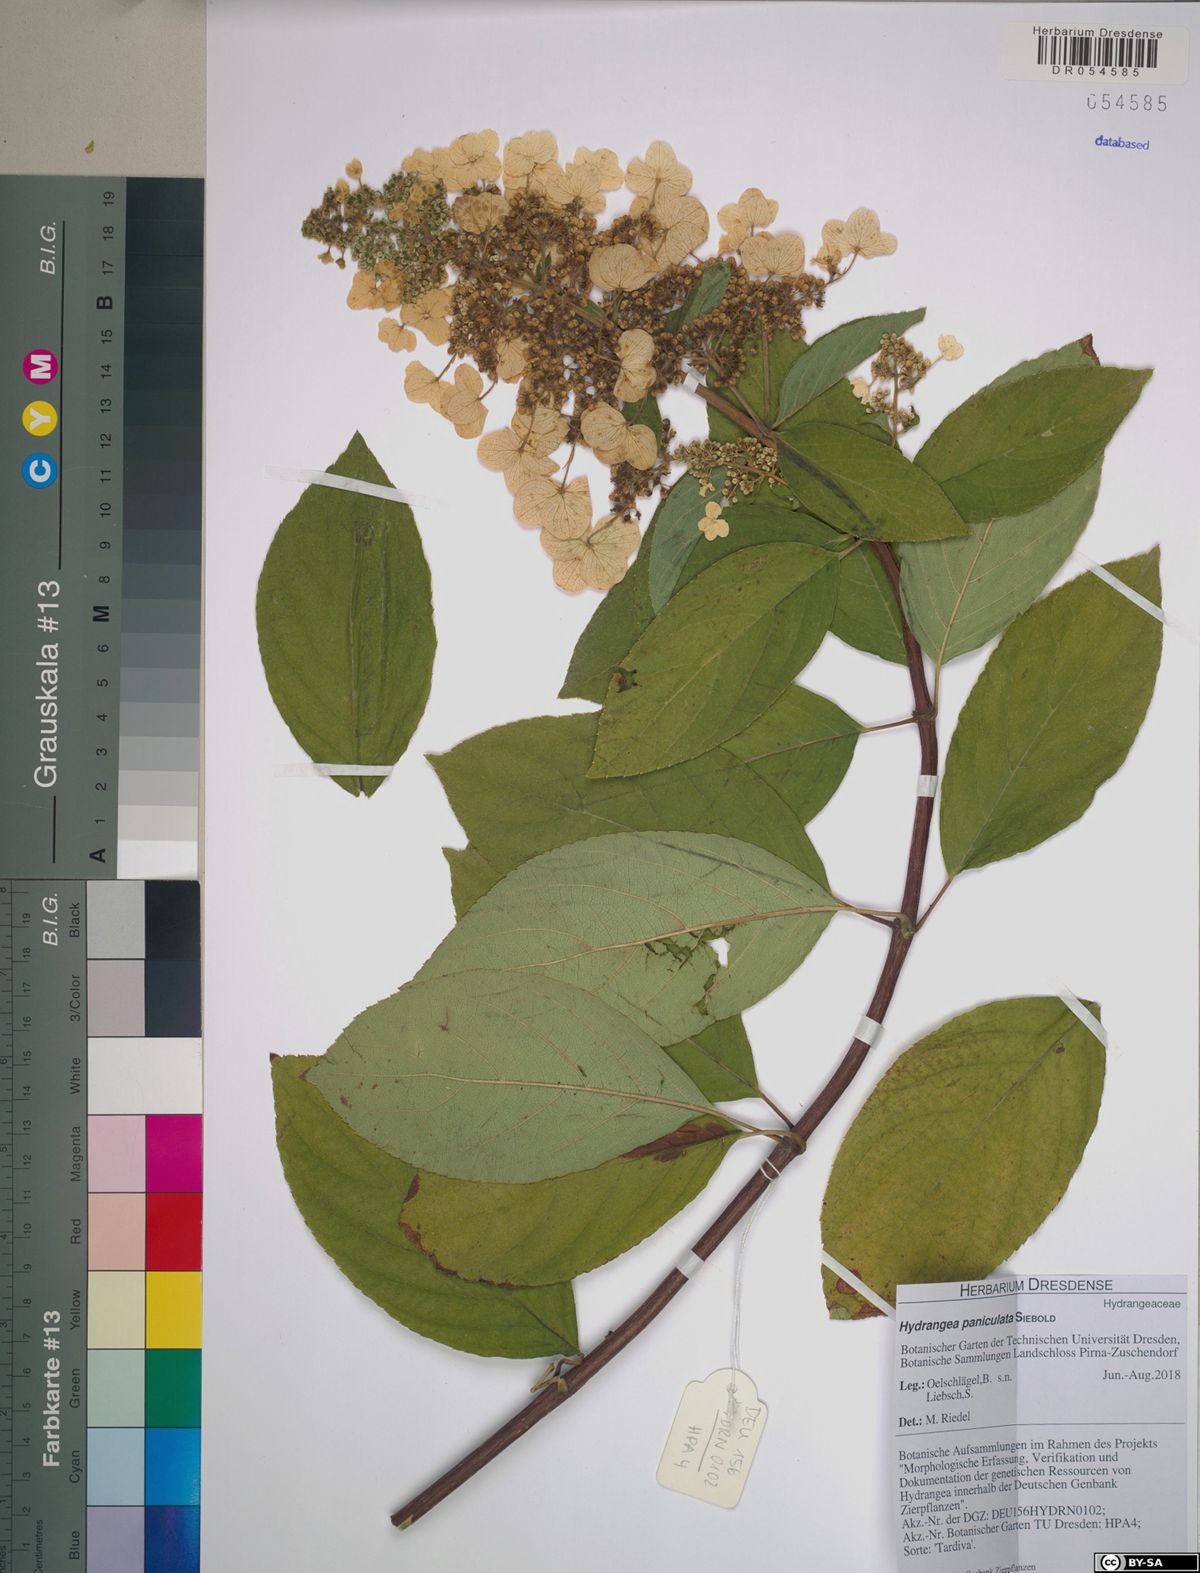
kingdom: Plantae
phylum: Tracheophyta
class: Magnoliopsida
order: Cornales
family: Hydrangeaceae
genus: Hydrangea
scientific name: Hydrangea paniculata
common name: Panicled hydrangea
